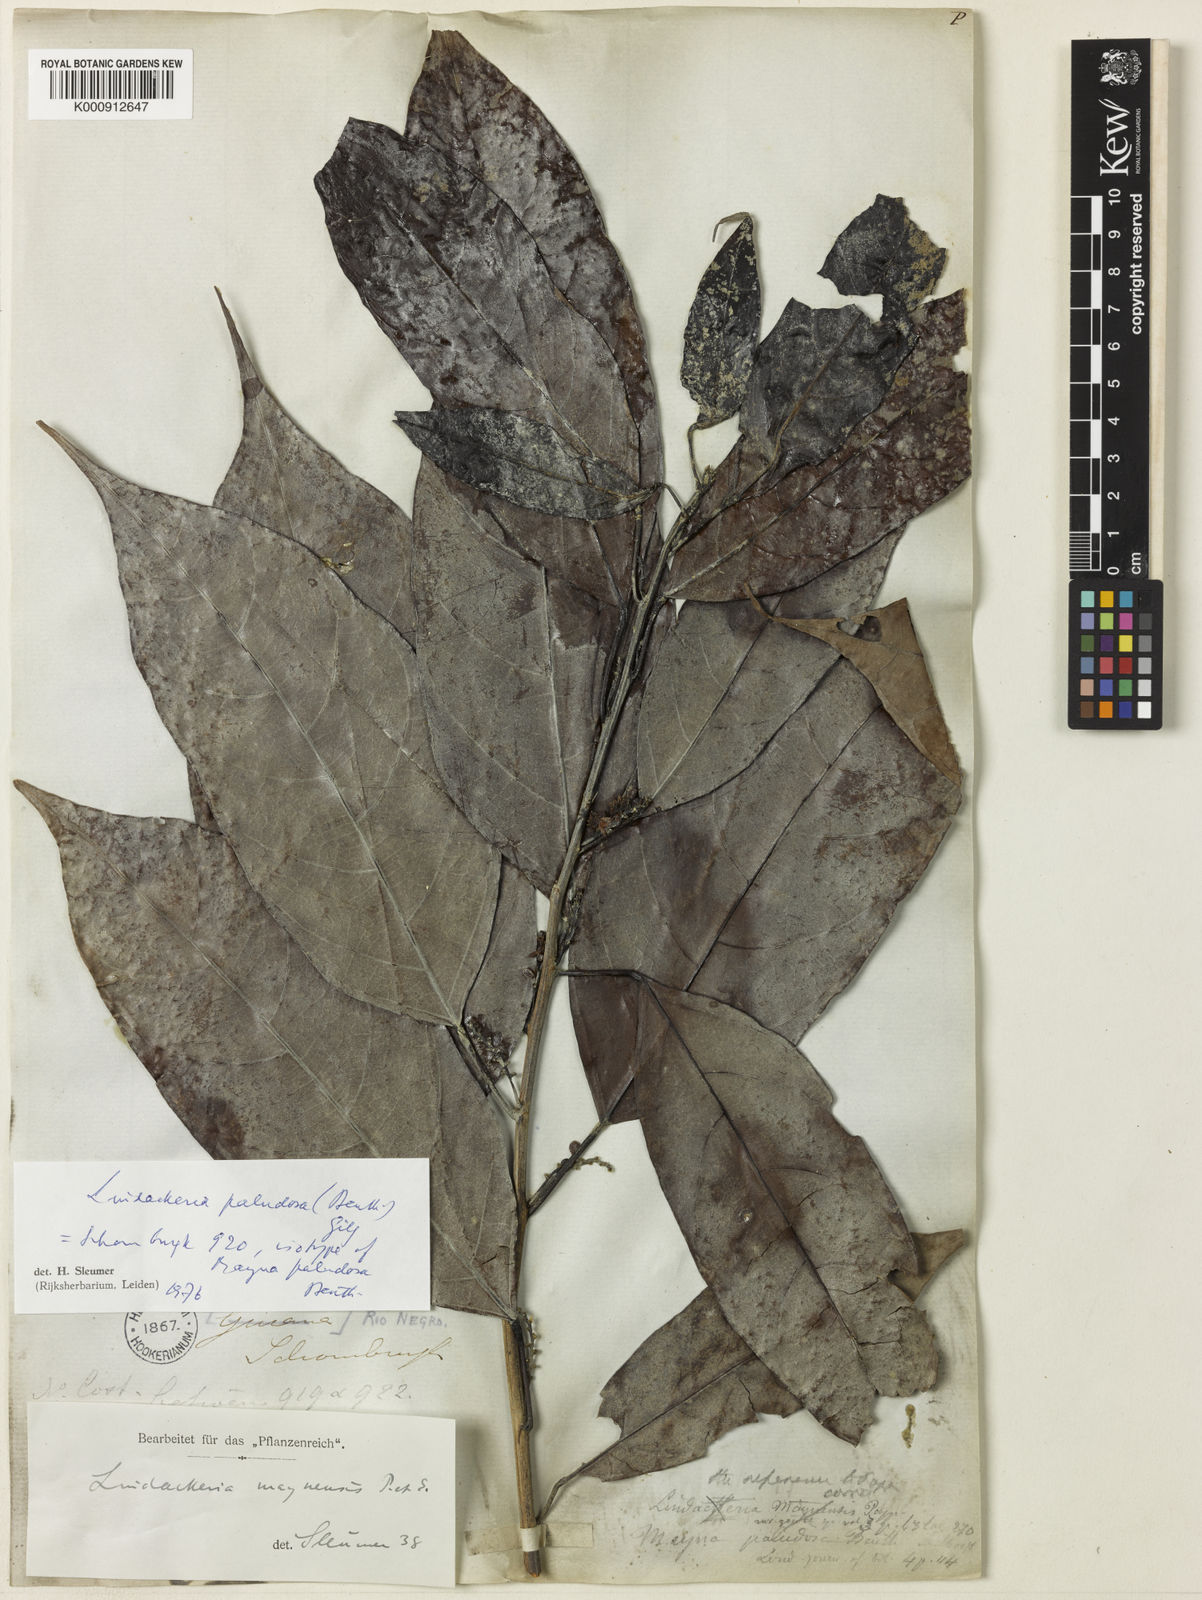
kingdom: Plantae
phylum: Tracheophyta
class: Magnoliopsida
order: Malpighiales
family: Achariaceae
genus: Lindackeria
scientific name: Lindackeria paludosa
